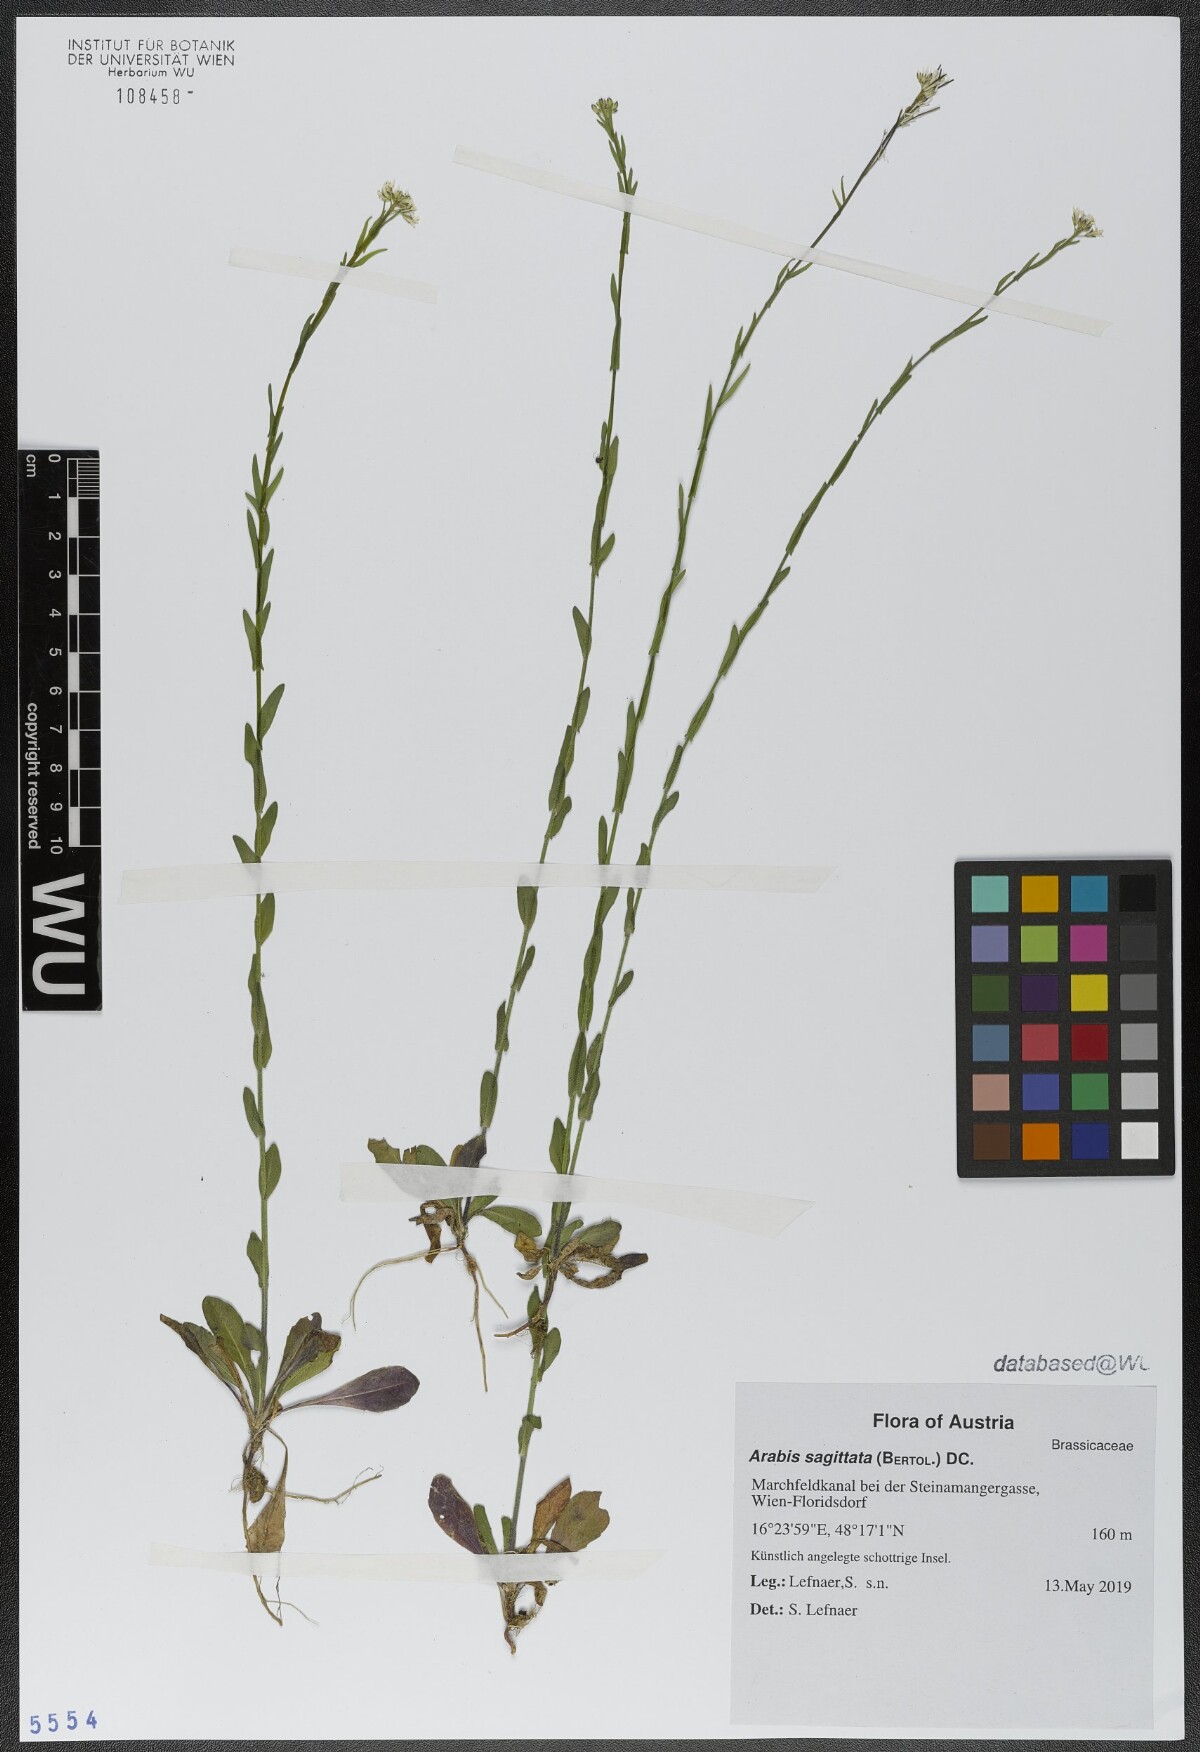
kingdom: Plantae
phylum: Tracheophyta
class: Magnoliopsida
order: Brassicales
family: Brassicaceae
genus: Arabis
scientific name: Arabis sagittata
